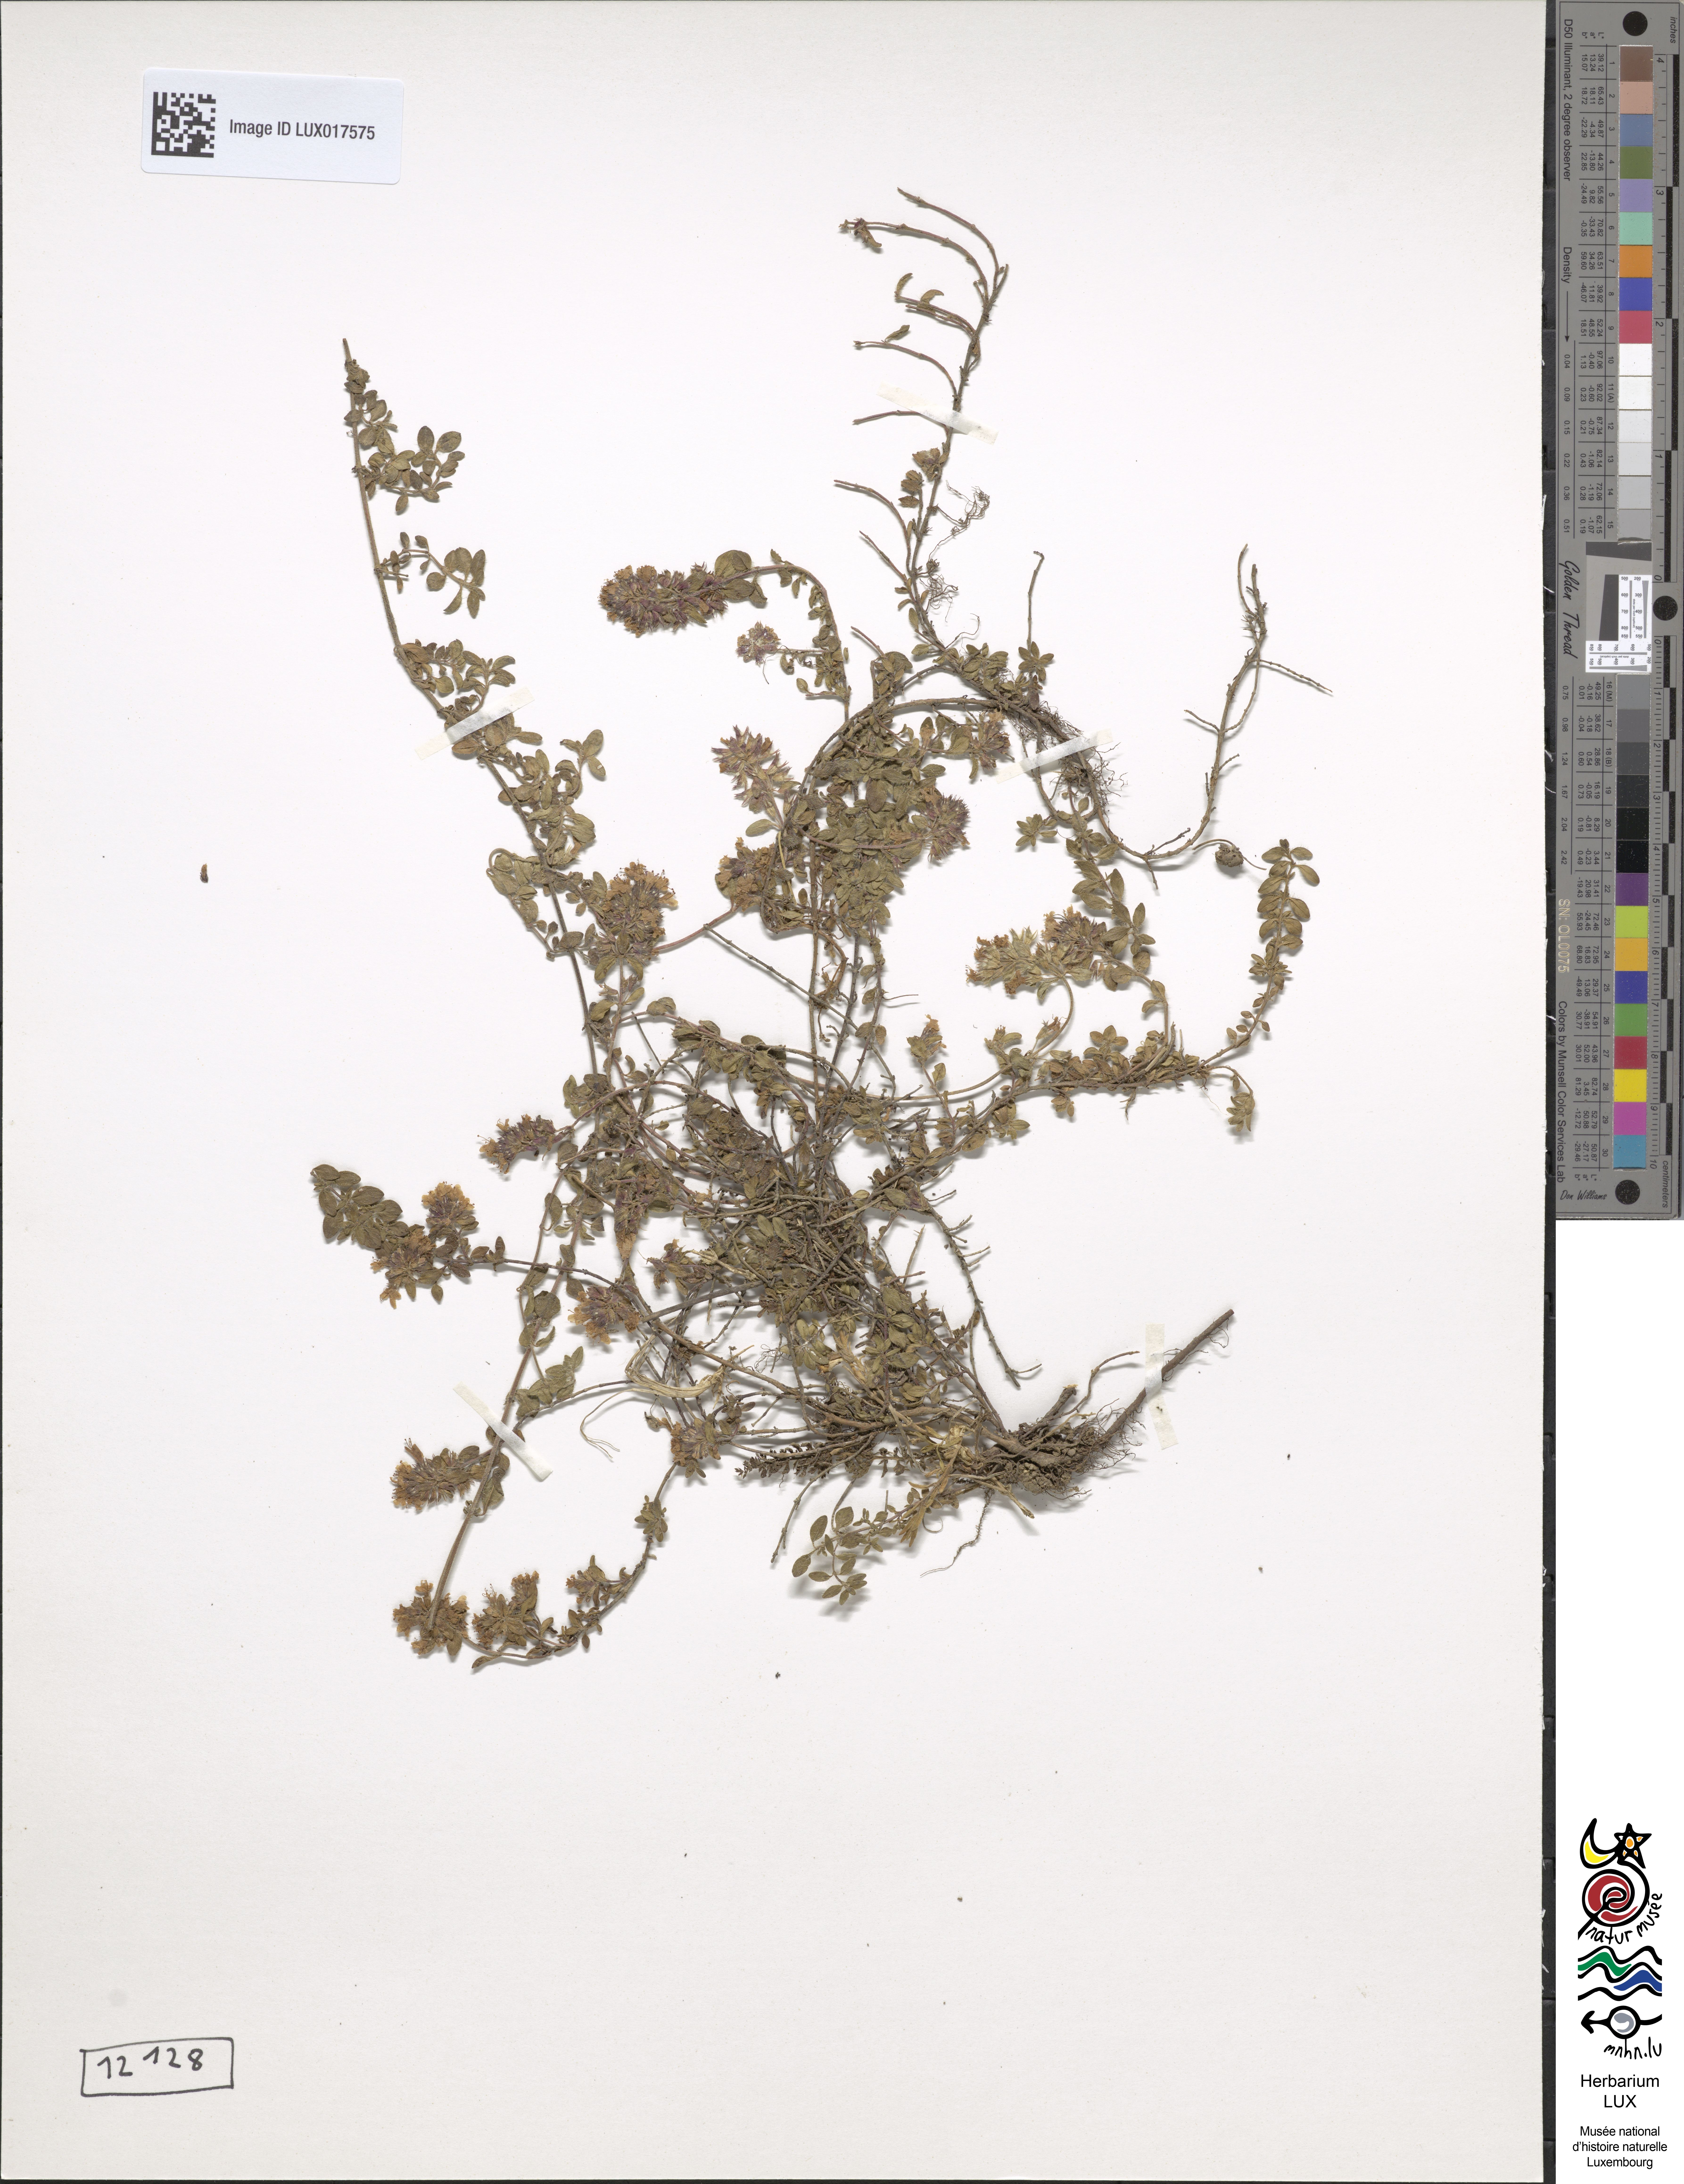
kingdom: Plantae
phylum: Tracheophyta
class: Magnoliopsida
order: Lamiales
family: Lamiaceae
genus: Thymus
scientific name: Thymus serpyllum
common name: Breckland thyme
